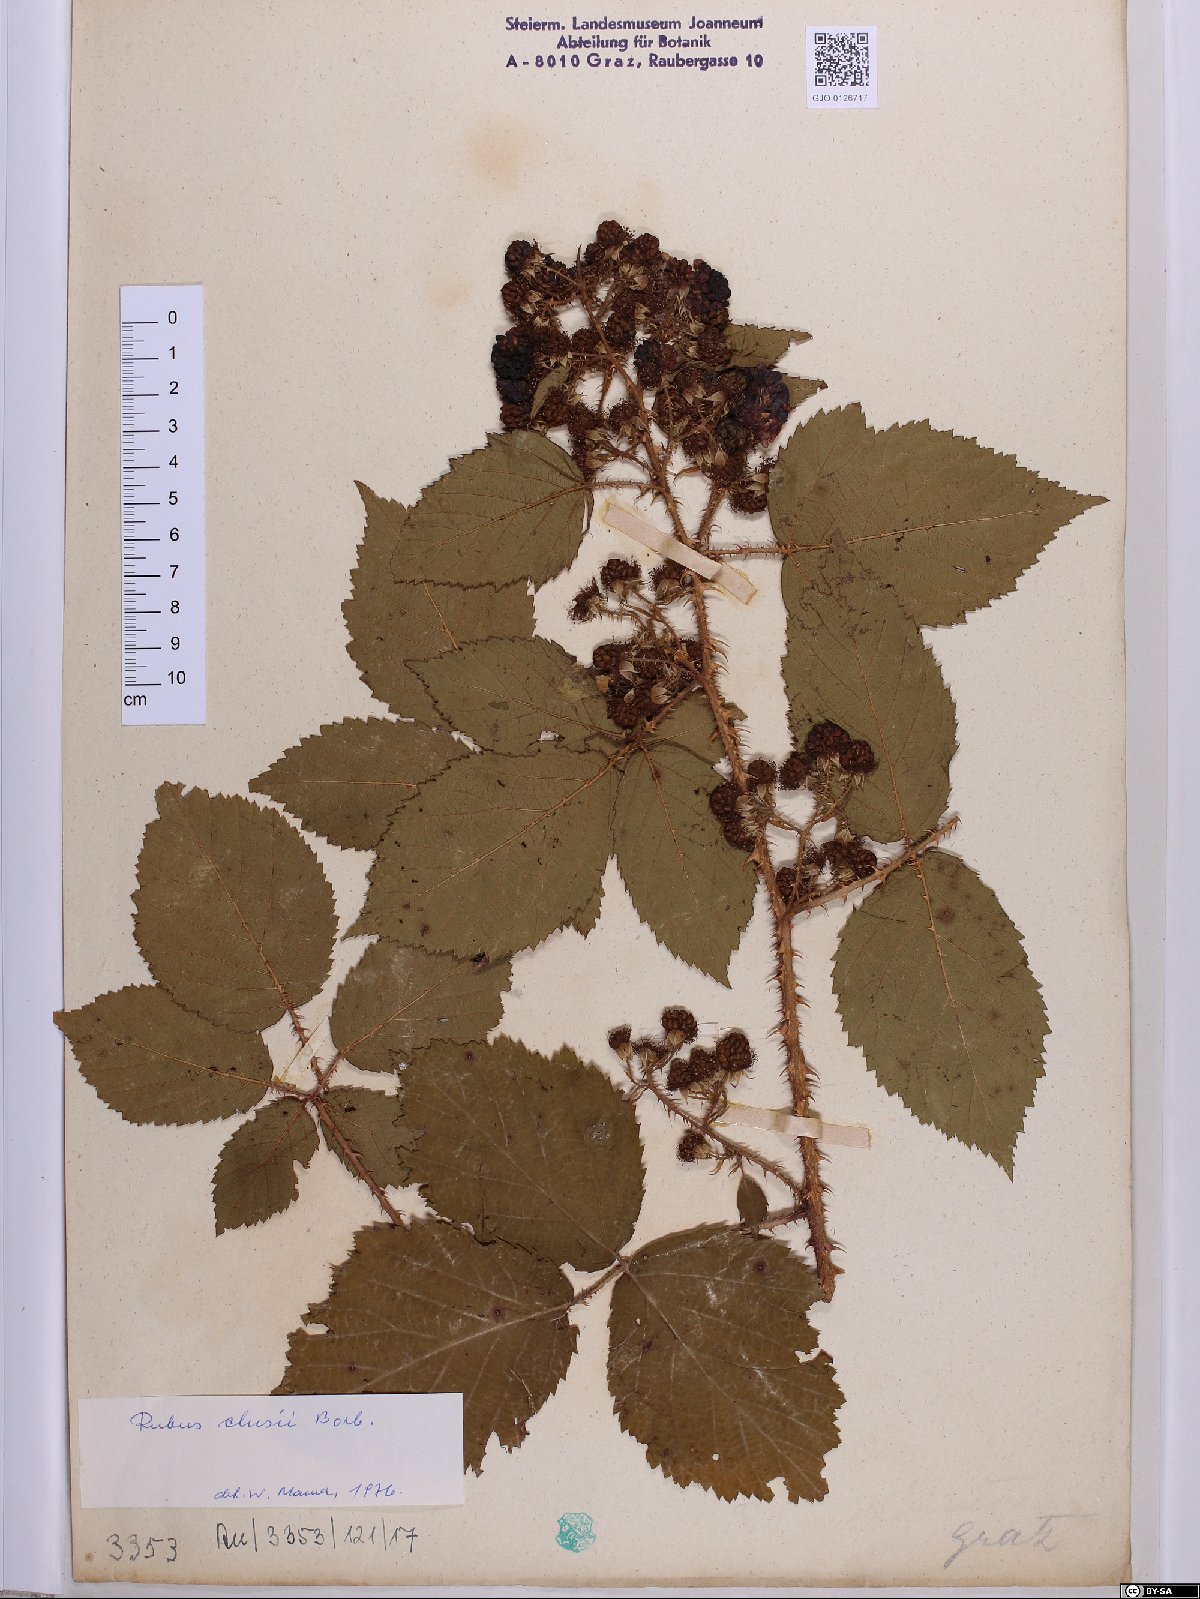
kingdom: Plantae
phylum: Tracheophyta
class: Magnoliopsida
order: Rosales
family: Rosaceae
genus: Rubus
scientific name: Rubus clusii
